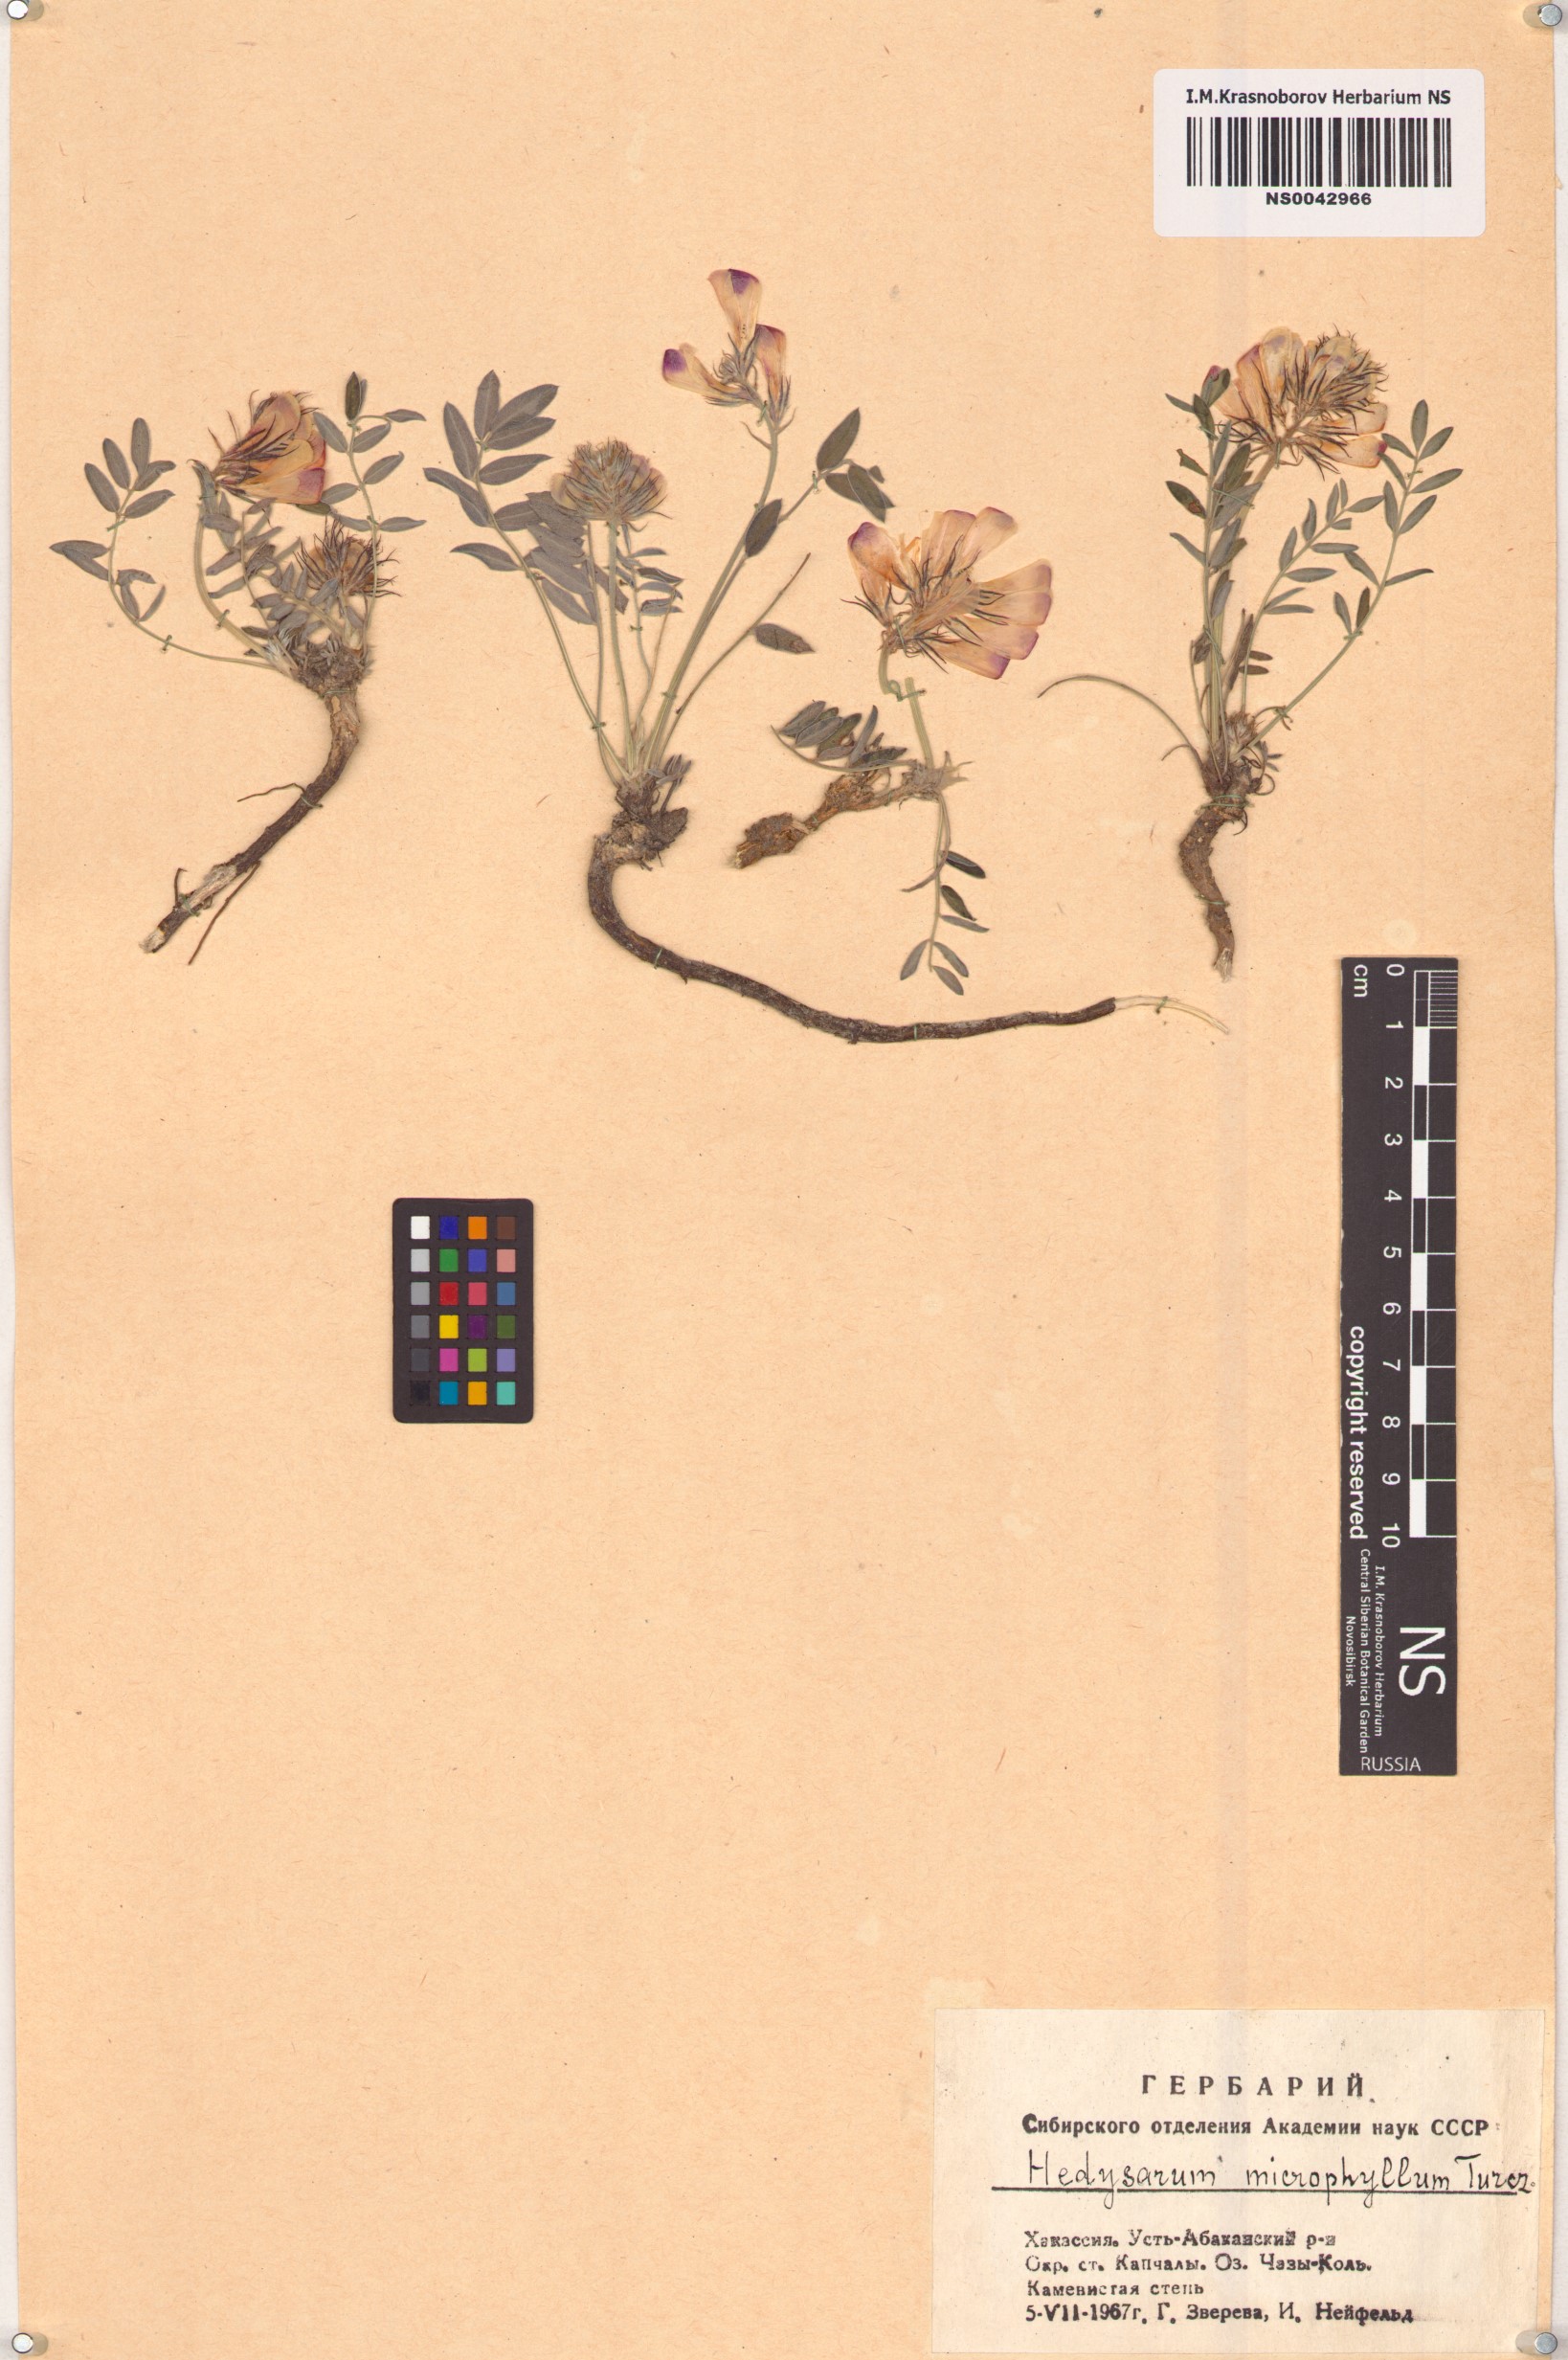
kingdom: Plantae
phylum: Tracheophyta
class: Magnoliopsida
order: Fabales
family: Fabaceae
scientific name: Fabaceae
